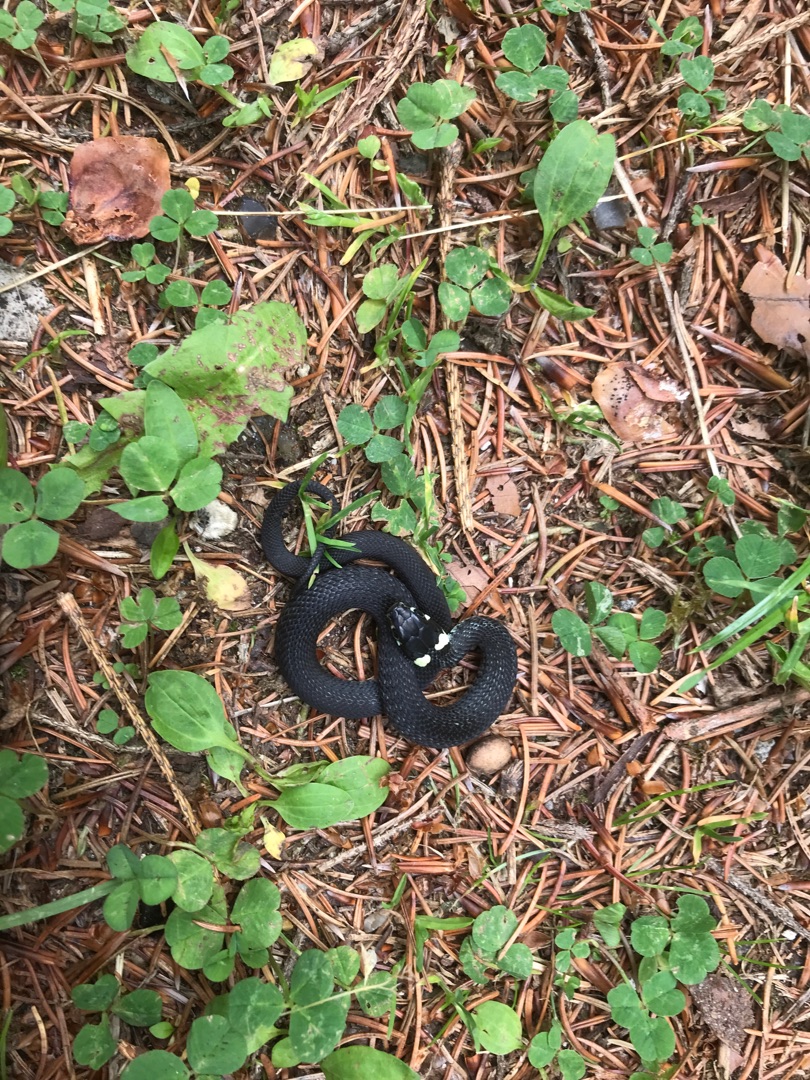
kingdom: Animalia
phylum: Chordata
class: Squamata
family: Colubridae
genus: Natrix
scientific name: Natrix natrix
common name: Snog
